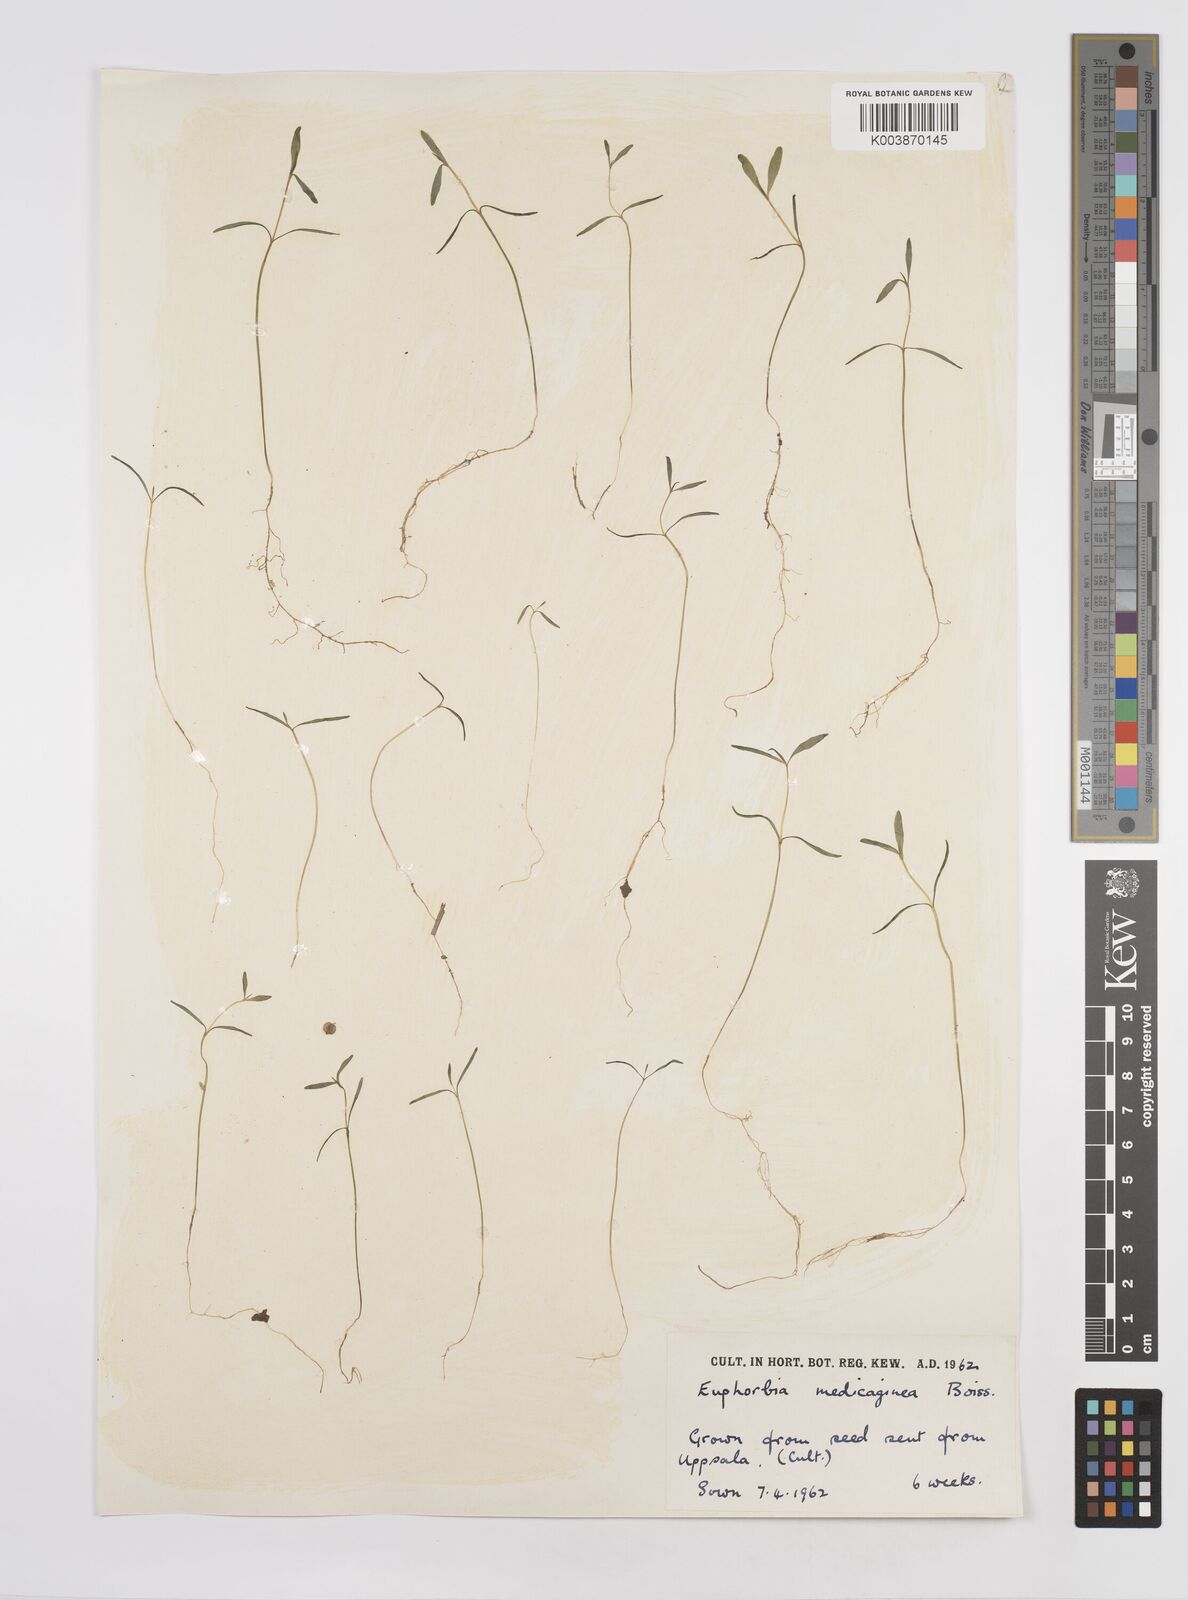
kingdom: Plantae
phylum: Tracheophyta
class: Magnoliopsida
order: Malpighiales
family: Euphorbiaceae
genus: Euphorbia
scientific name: Euphorbia medicaginea
